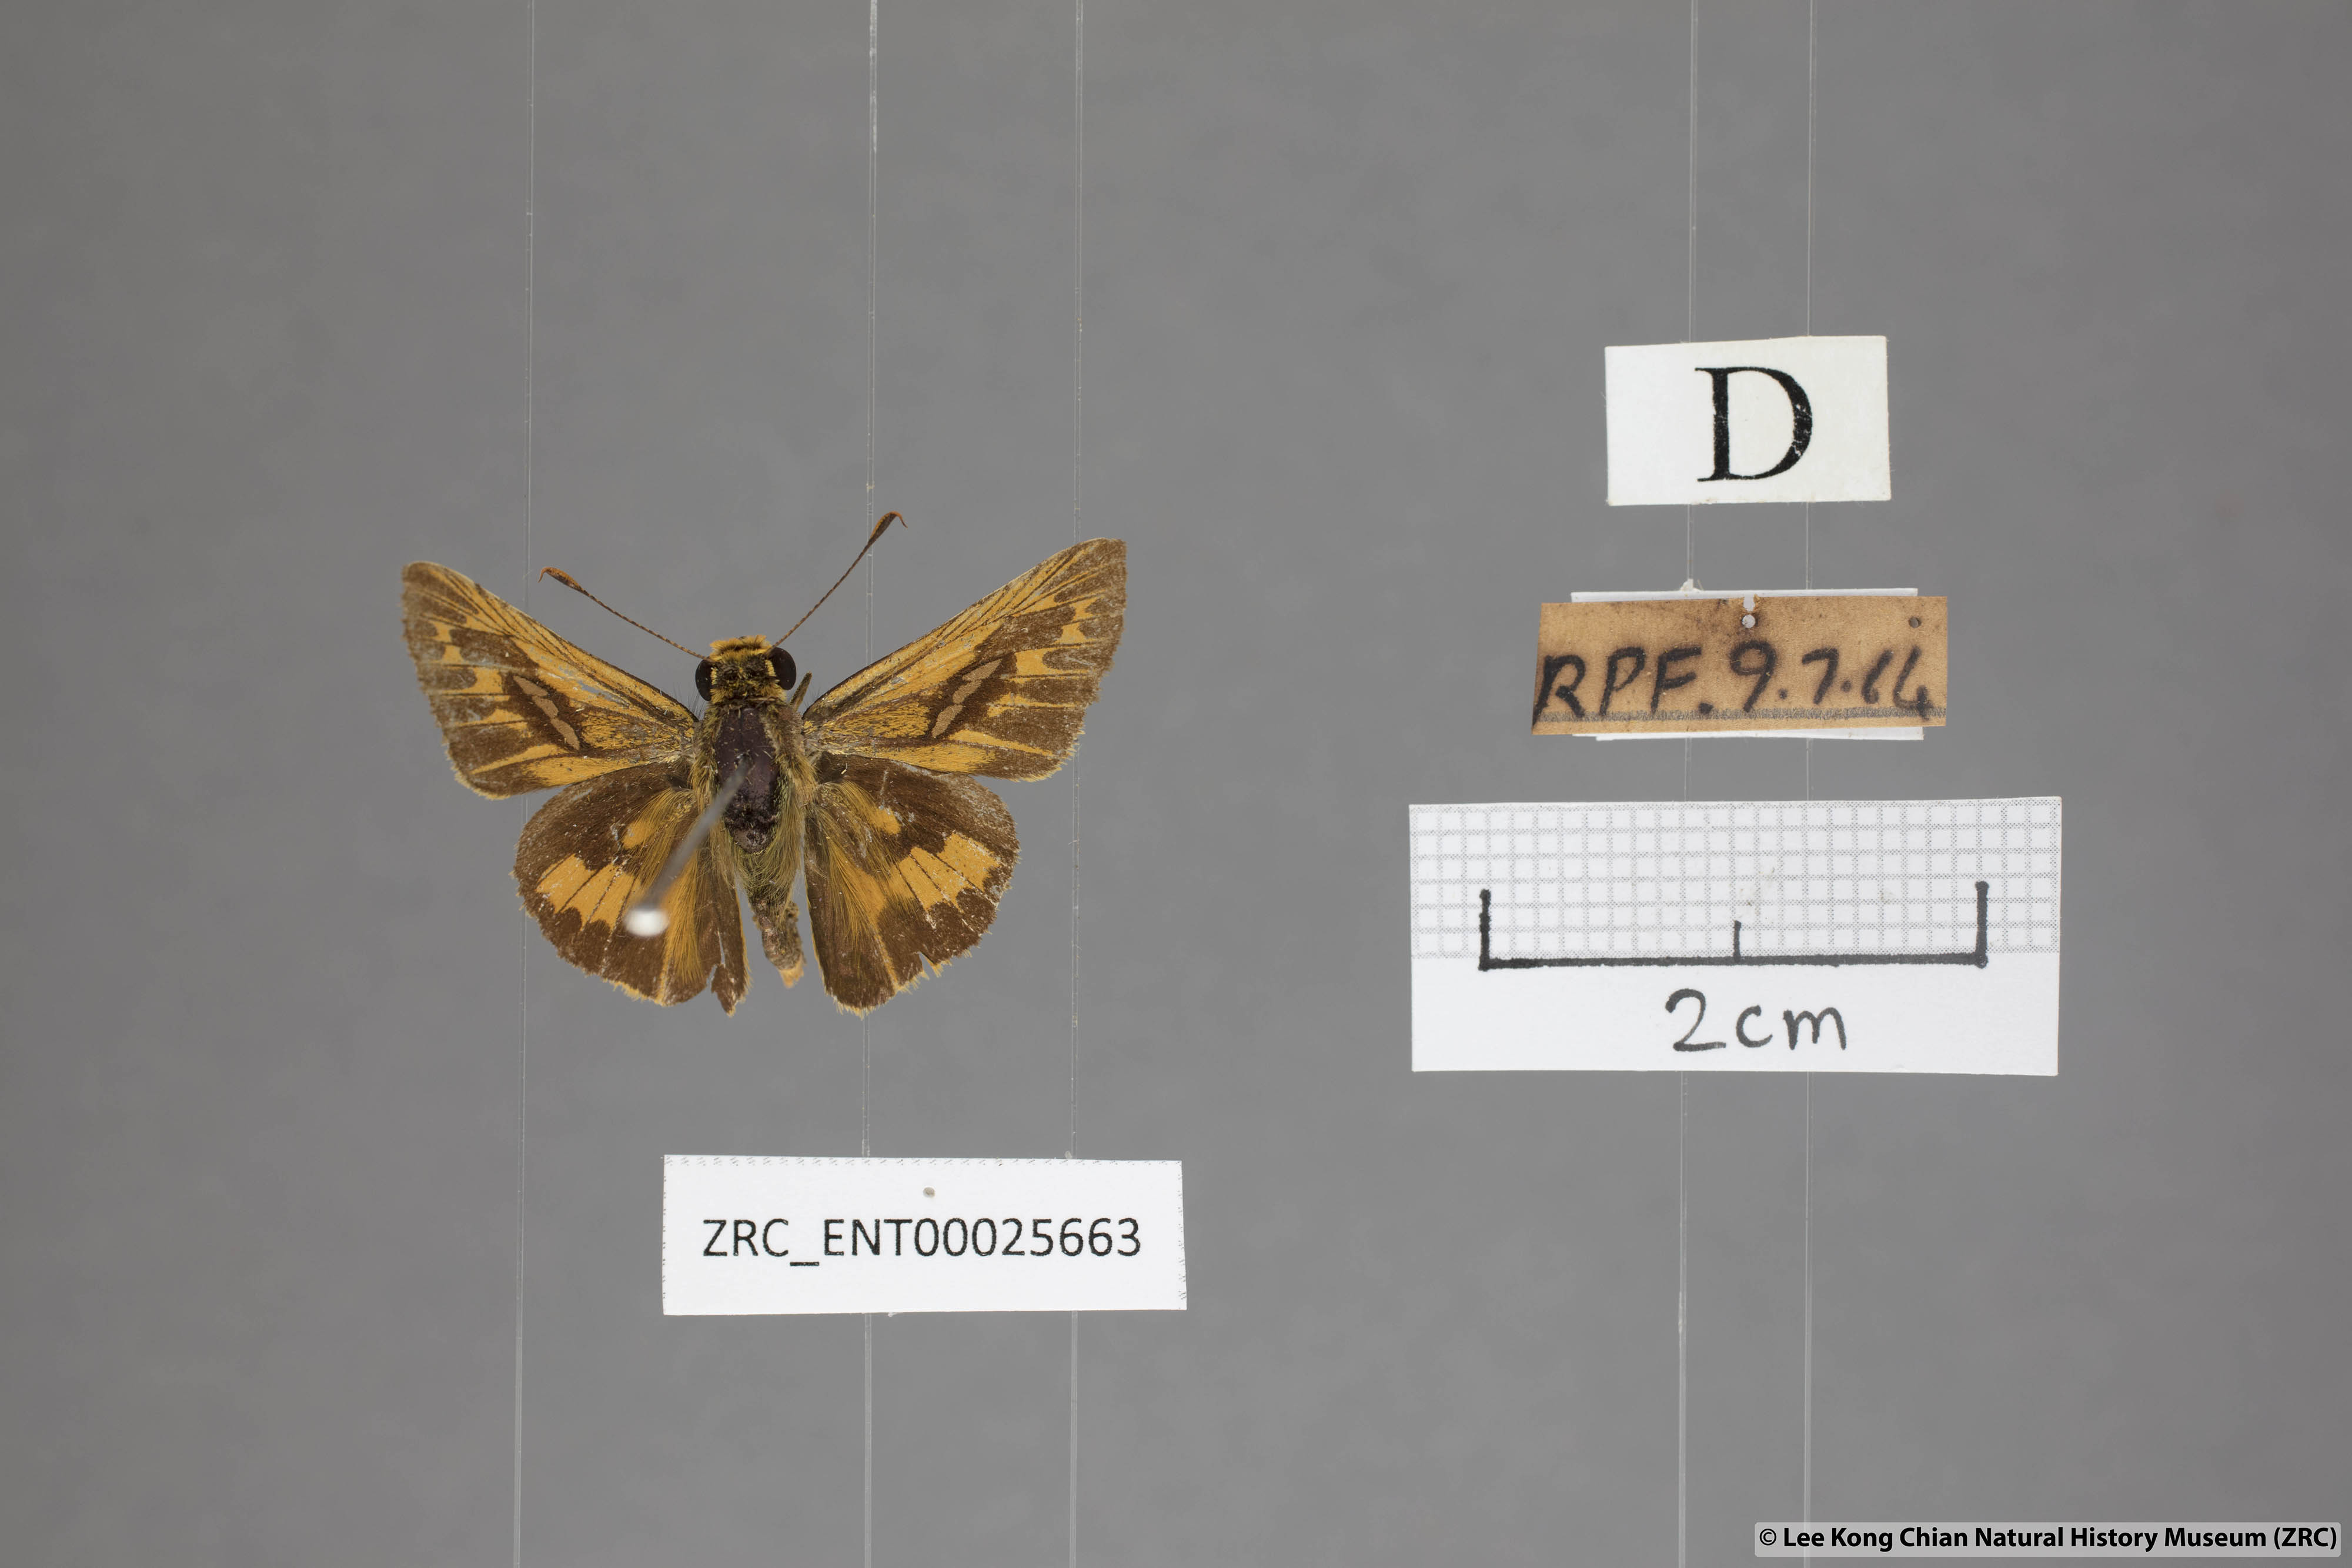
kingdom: Animalia
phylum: Arthropoda
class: Insecta
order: Lepidoptera
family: Hesperiidae
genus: Telicota
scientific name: Telicota colon
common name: Pale palm dart
